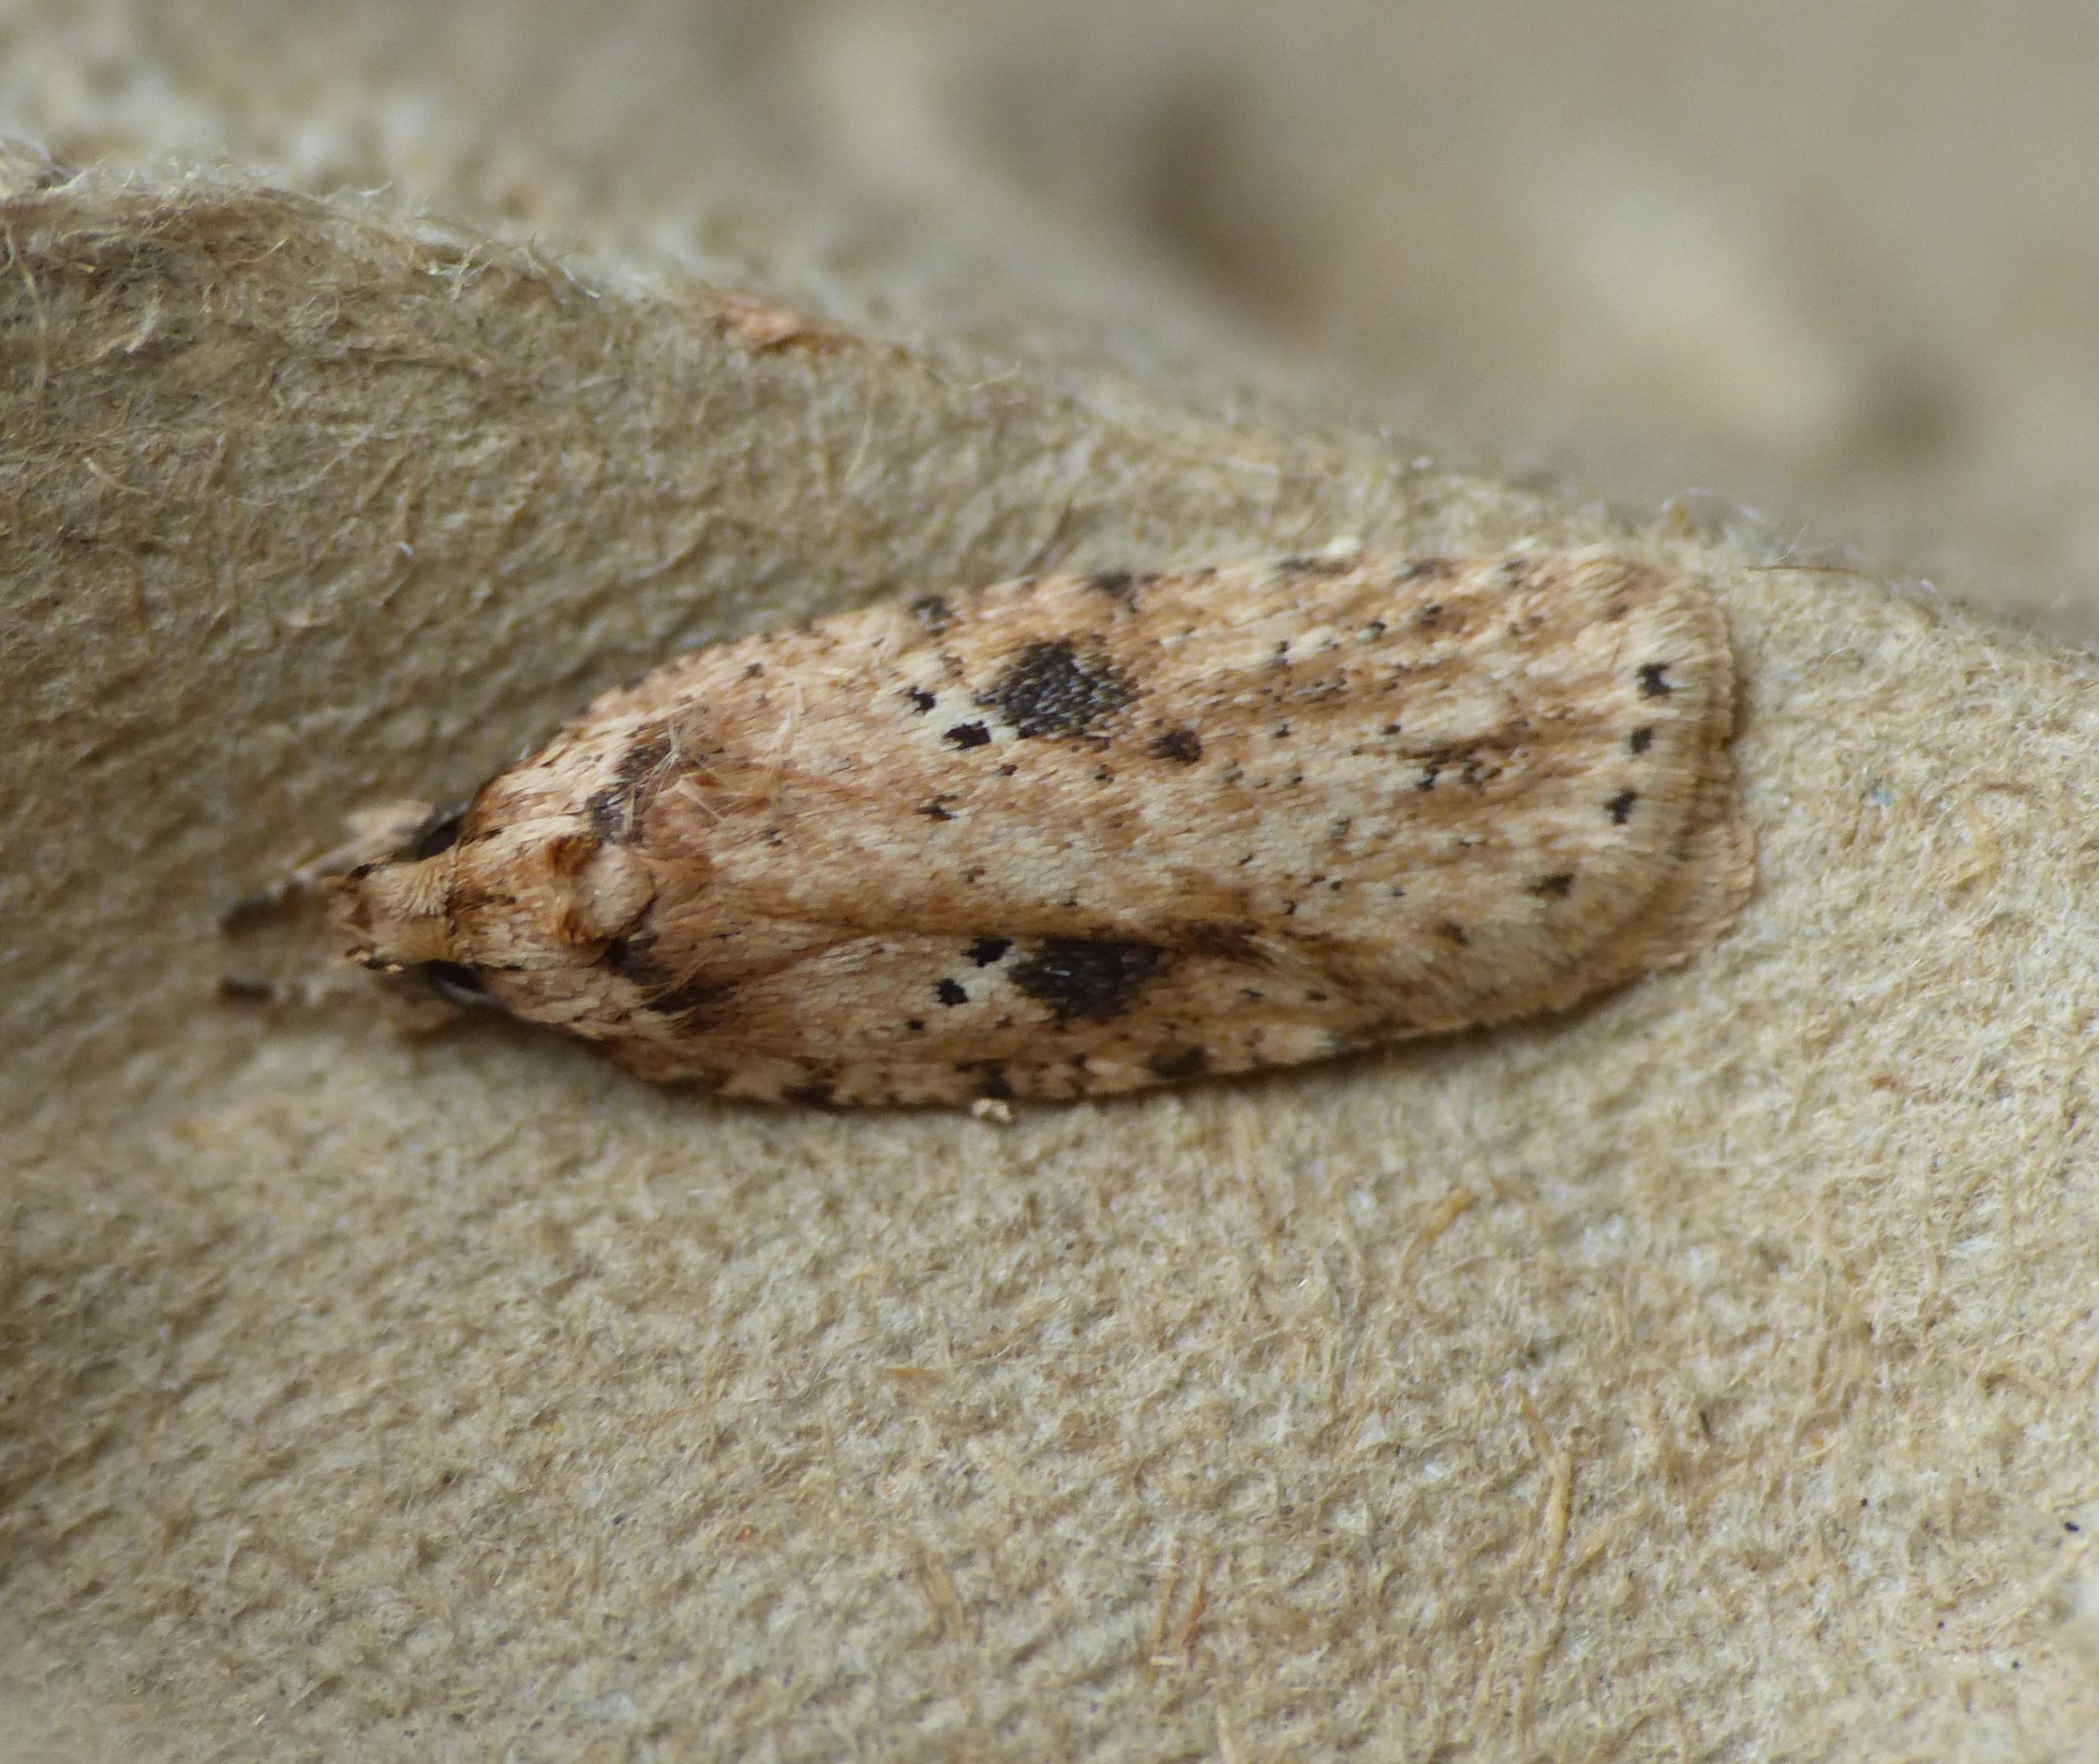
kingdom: Animalia
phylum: Arthropoda
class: Insecta
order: Lepidoptera
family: Depressariidae
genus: Agonopterix
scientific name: Agonopterix arenella
